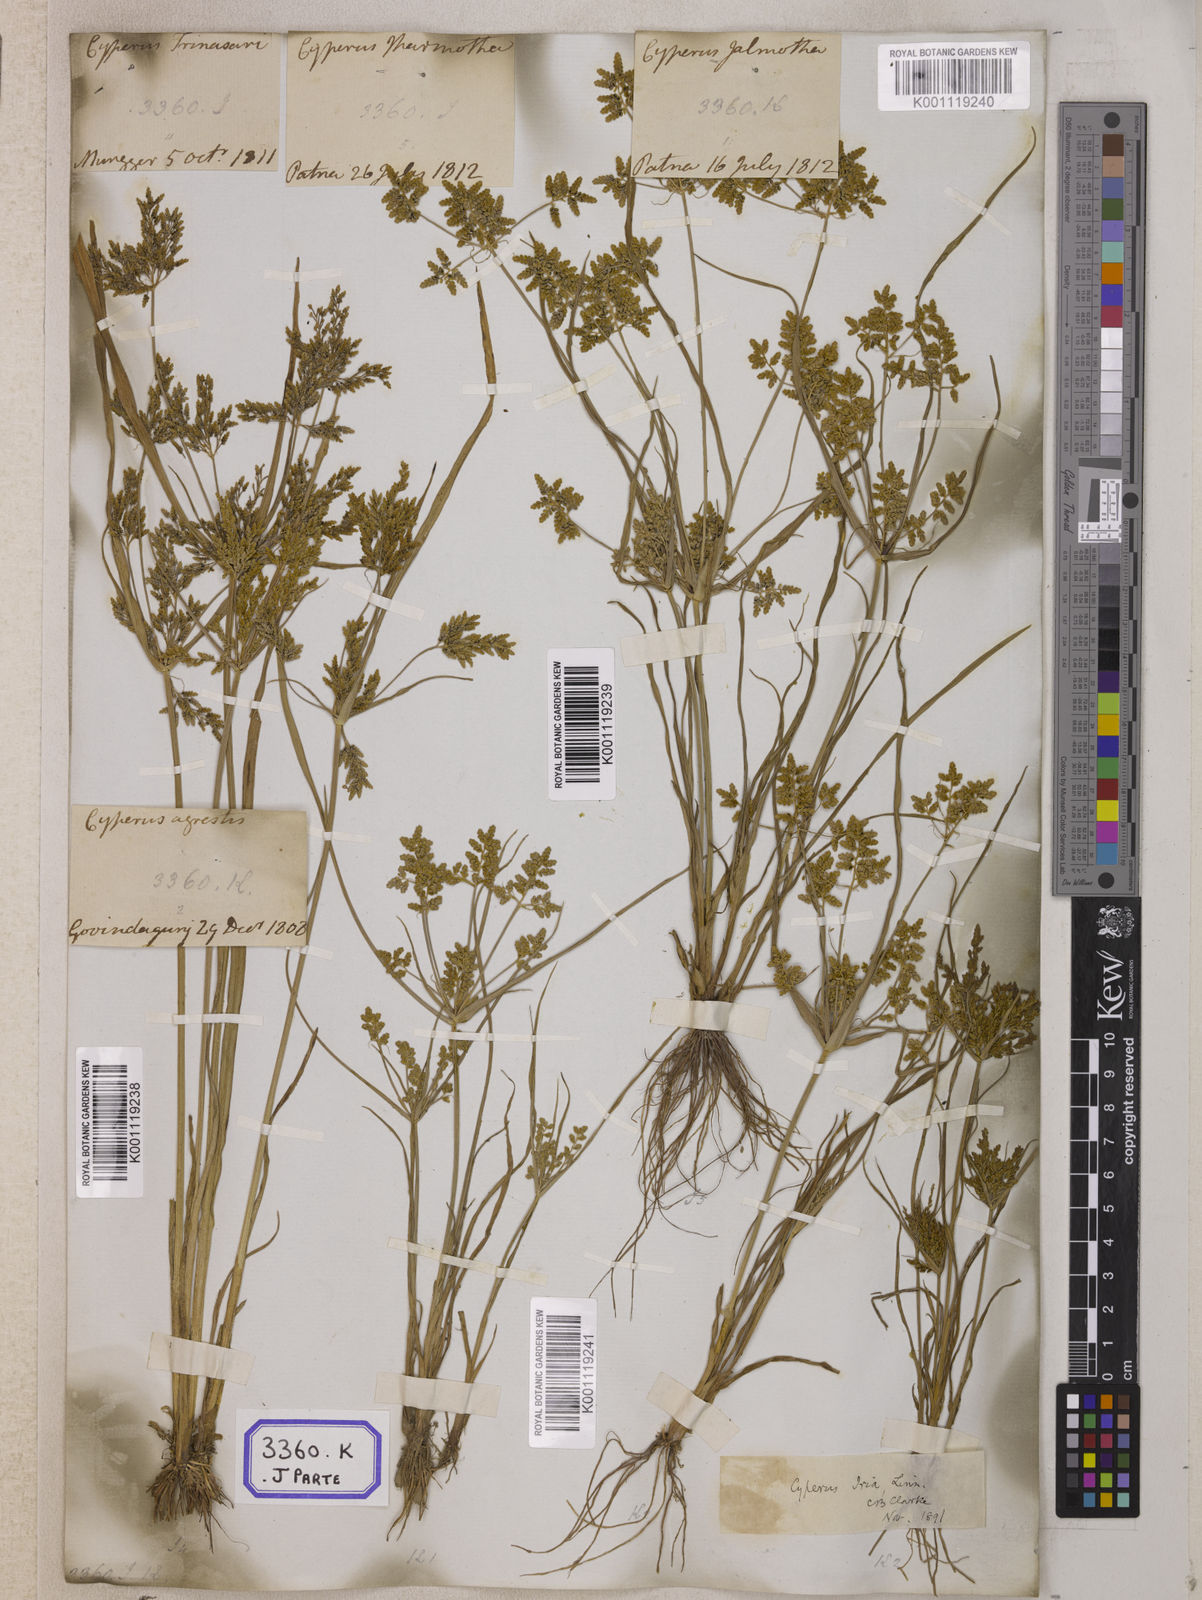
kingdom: Plantae
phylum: Tracheophyta
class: Liliopsida
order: Poales
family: Cyperaceae
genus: Cyperus
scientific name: Cyperus
